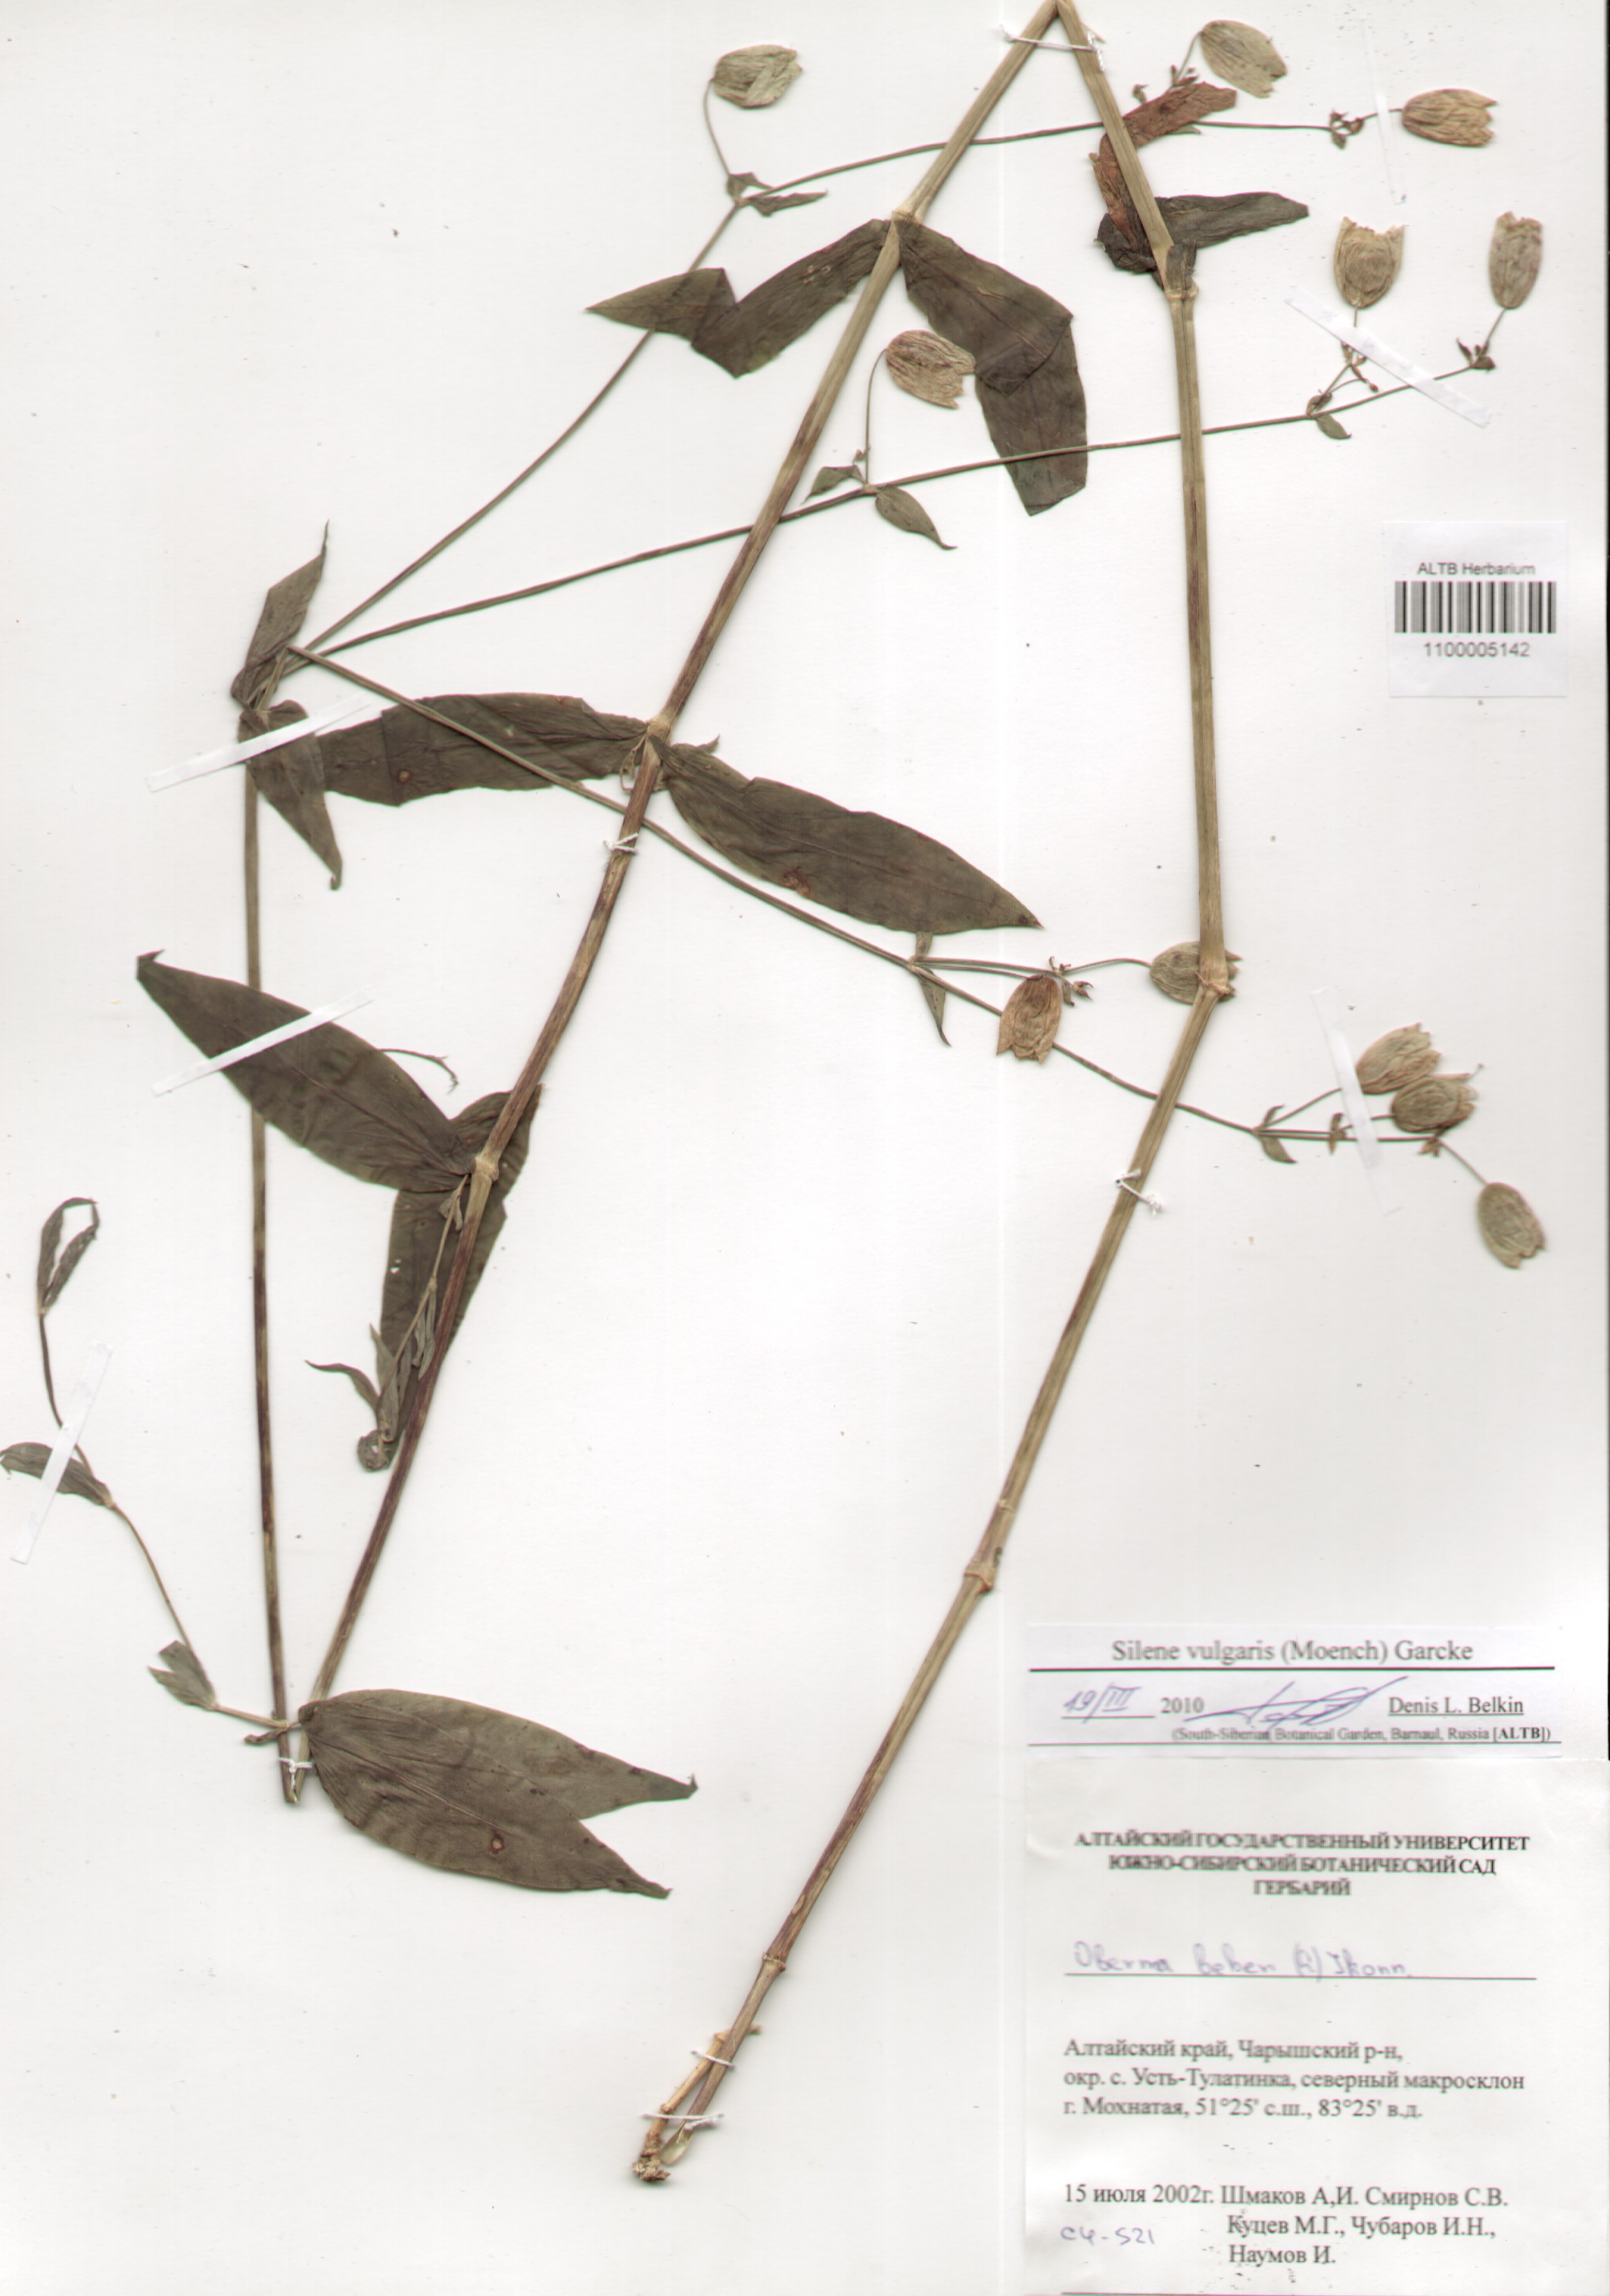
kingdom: Plantae
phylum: Tracheophyta
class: Magnoliopsida
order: Caryophyllales
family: Caryophyllaceae
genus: Silene
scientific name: Silene vulgaris
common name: Bladder campion
